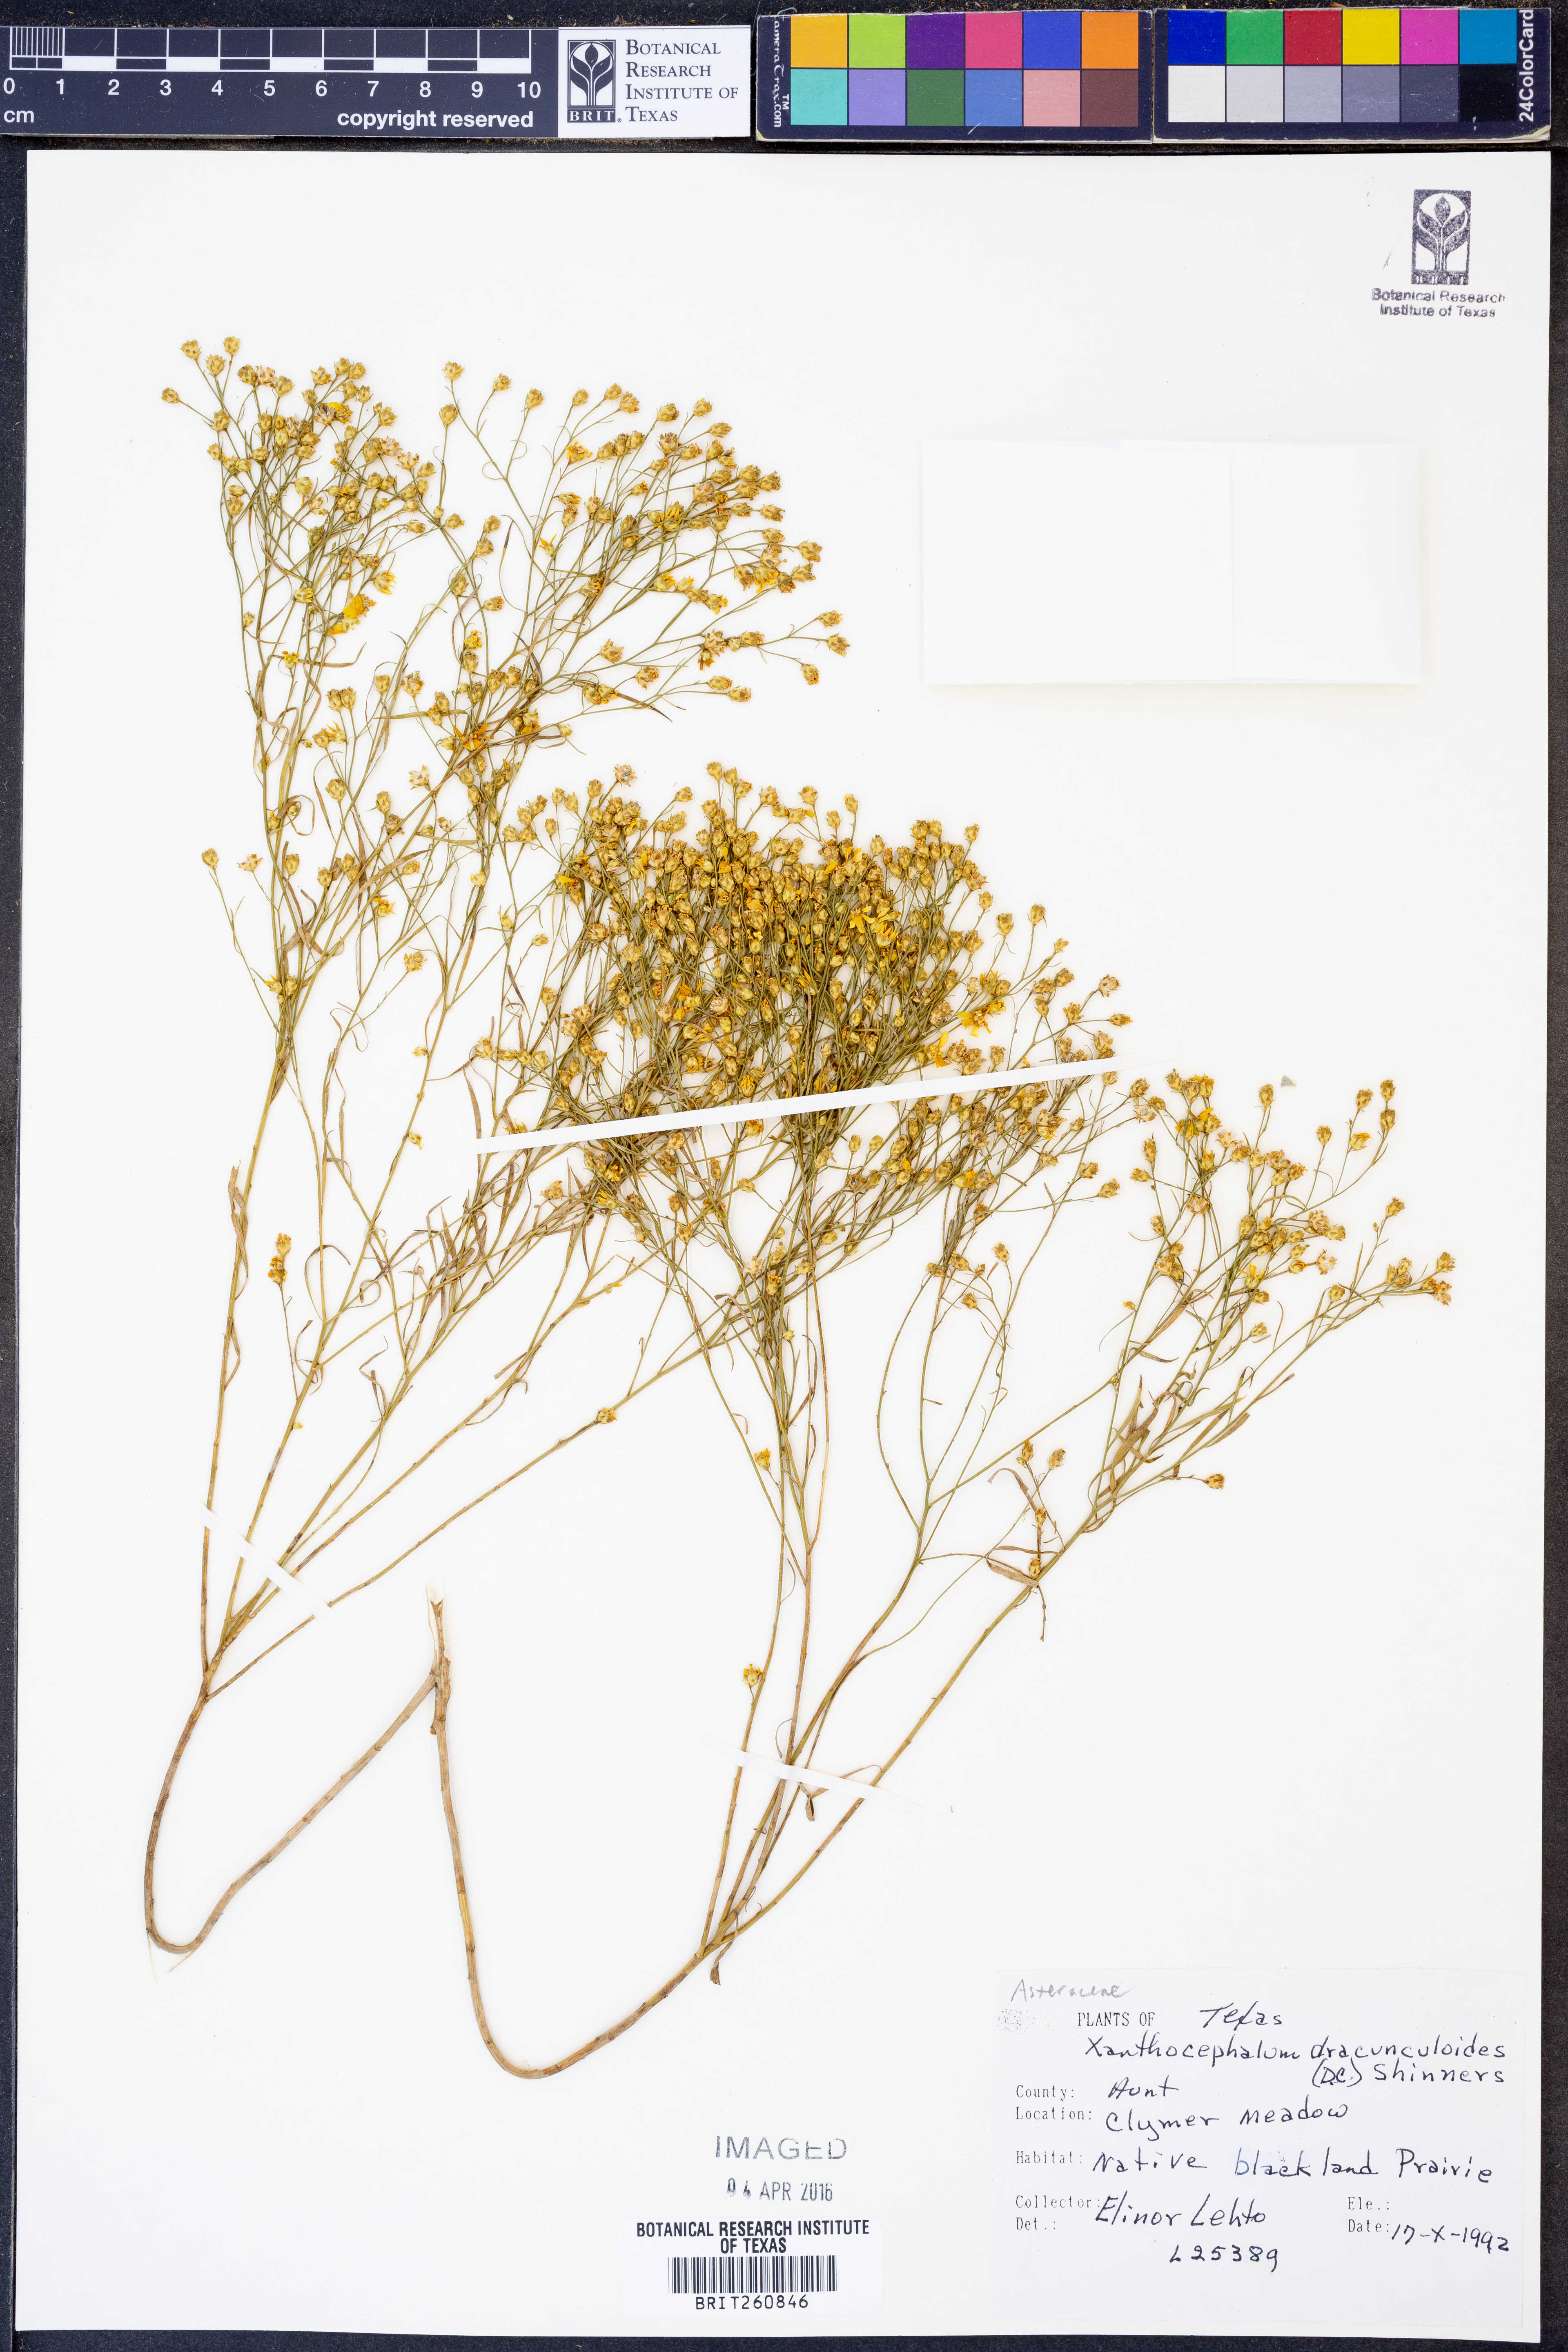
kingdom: Plantae
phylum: Tracheophyta
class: Magnoliopsida
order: Asterales
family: Asteraceae
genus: Amphiachyris
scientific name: Amphiachyris dracunculoides
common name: Broomweed
